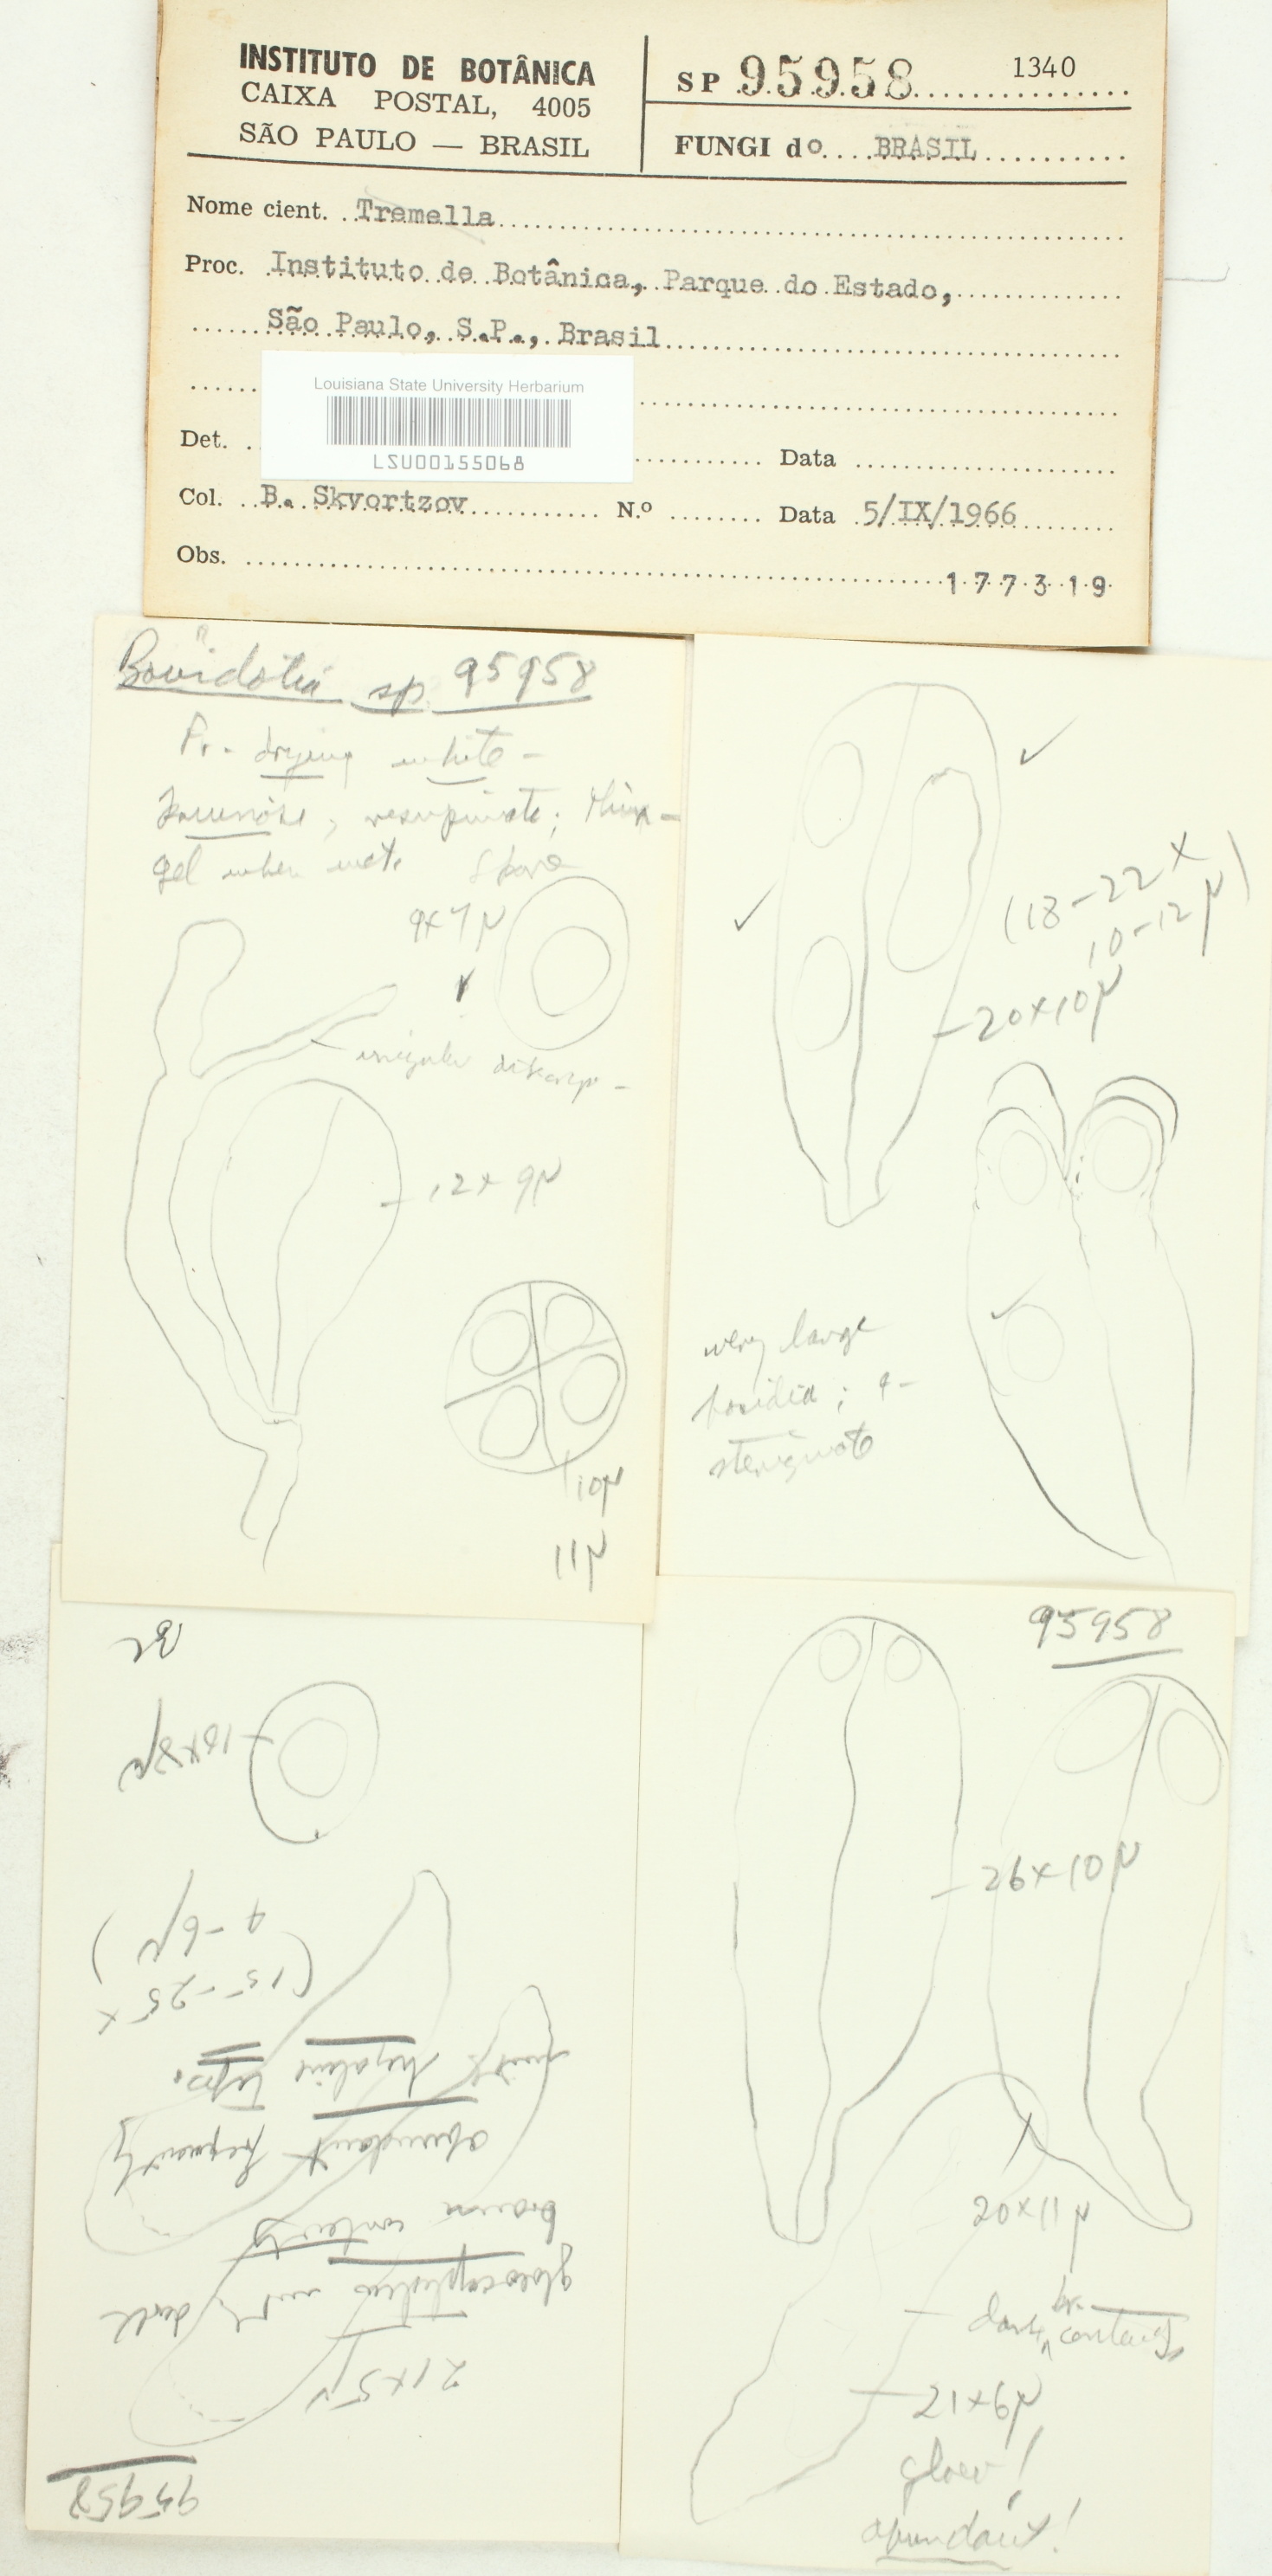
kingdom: Fungi
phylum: Basidiomycota
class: Tremellomycetes
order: Tremellales
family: Tremellaceae
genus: Tremella
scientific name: Tremella
